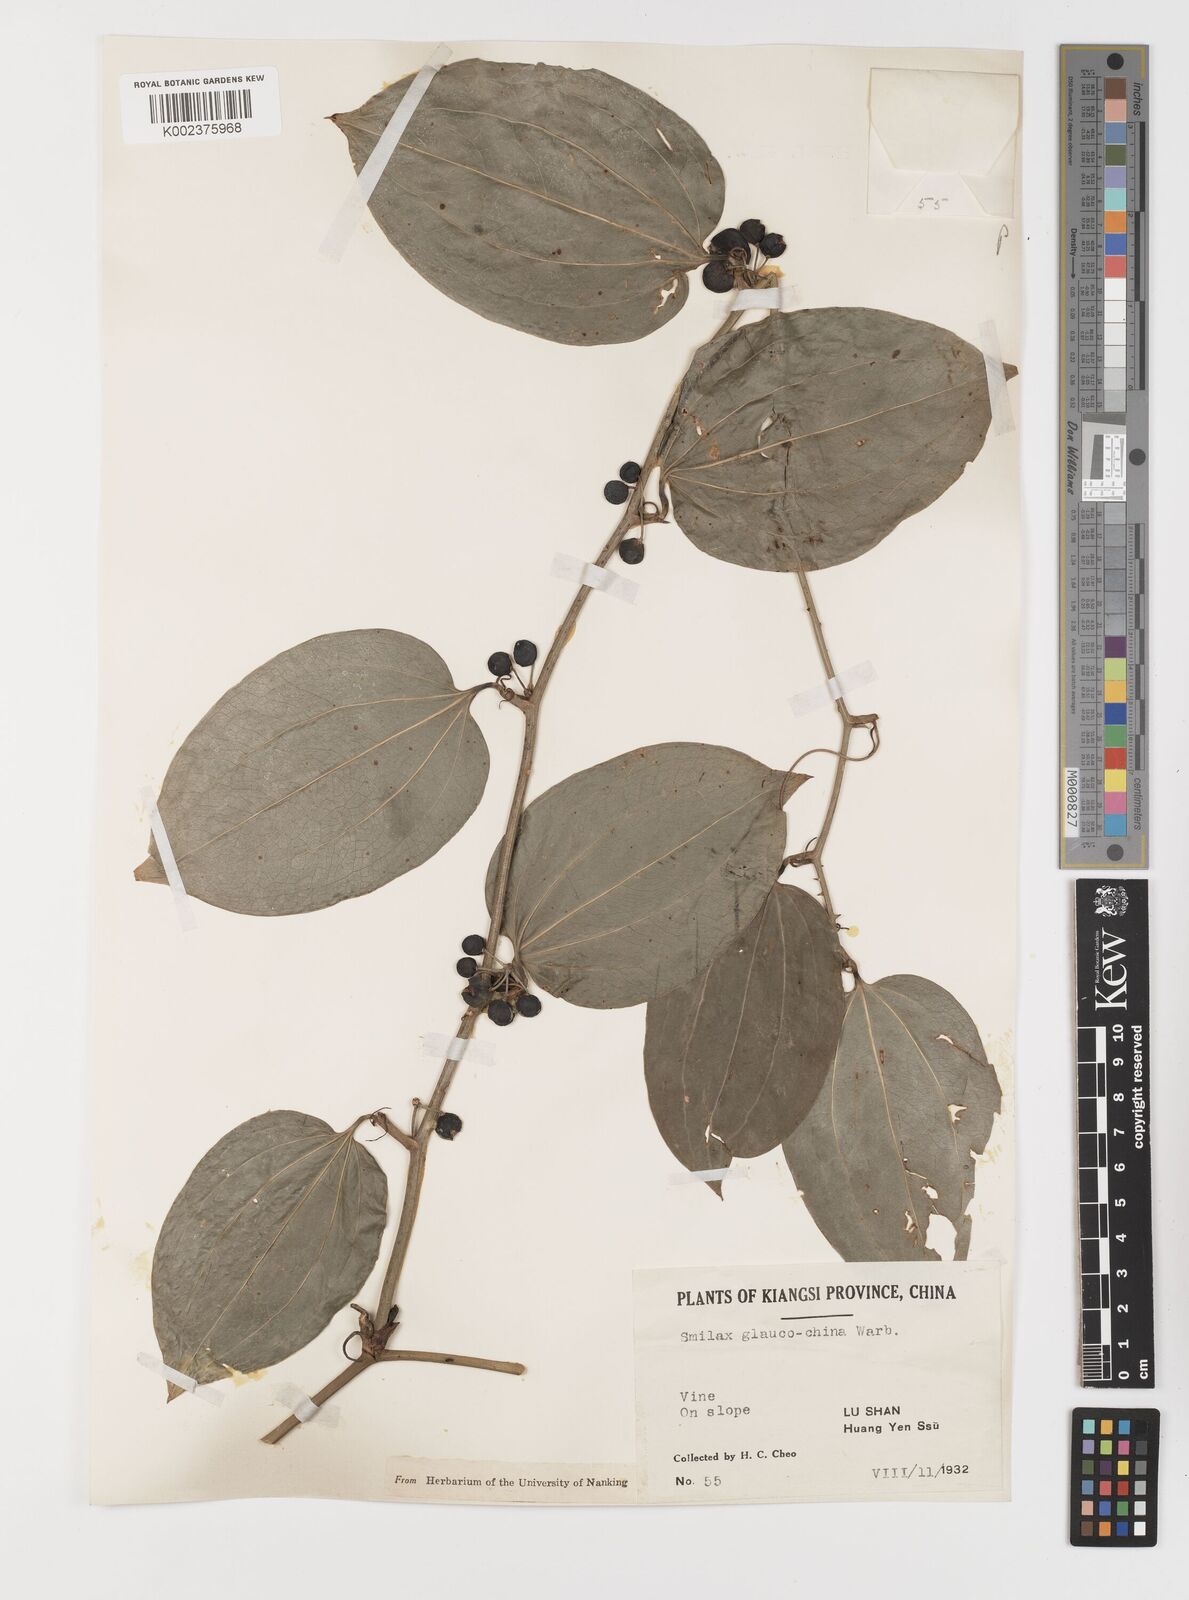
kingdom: Plantae
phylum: Tracheophyta
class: Liliopsida
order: Liliales
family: Smilacaceae
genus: Smilax
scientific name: Smilax glaucochina
